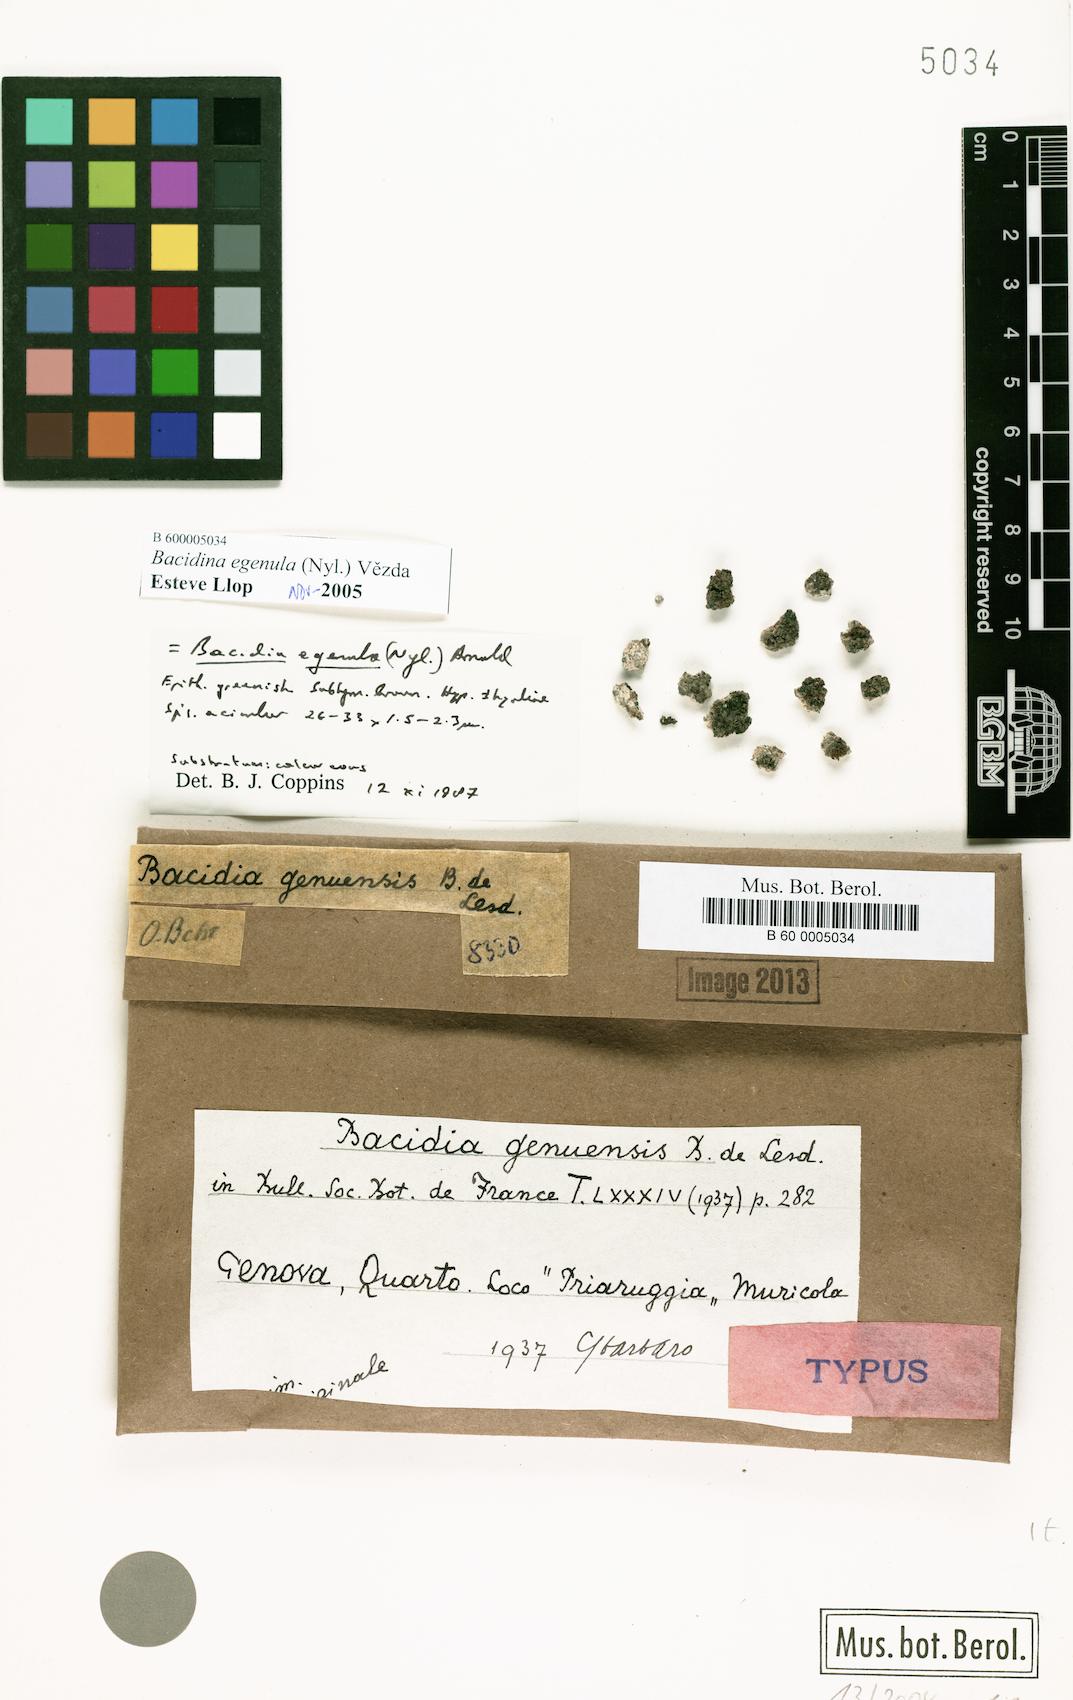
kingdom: Fungi
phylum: Ascomycota
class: Lecanoromycetes
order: Lecanorales
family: Ramalinaceae
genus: Bacidina
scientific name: Bacidina egenula
